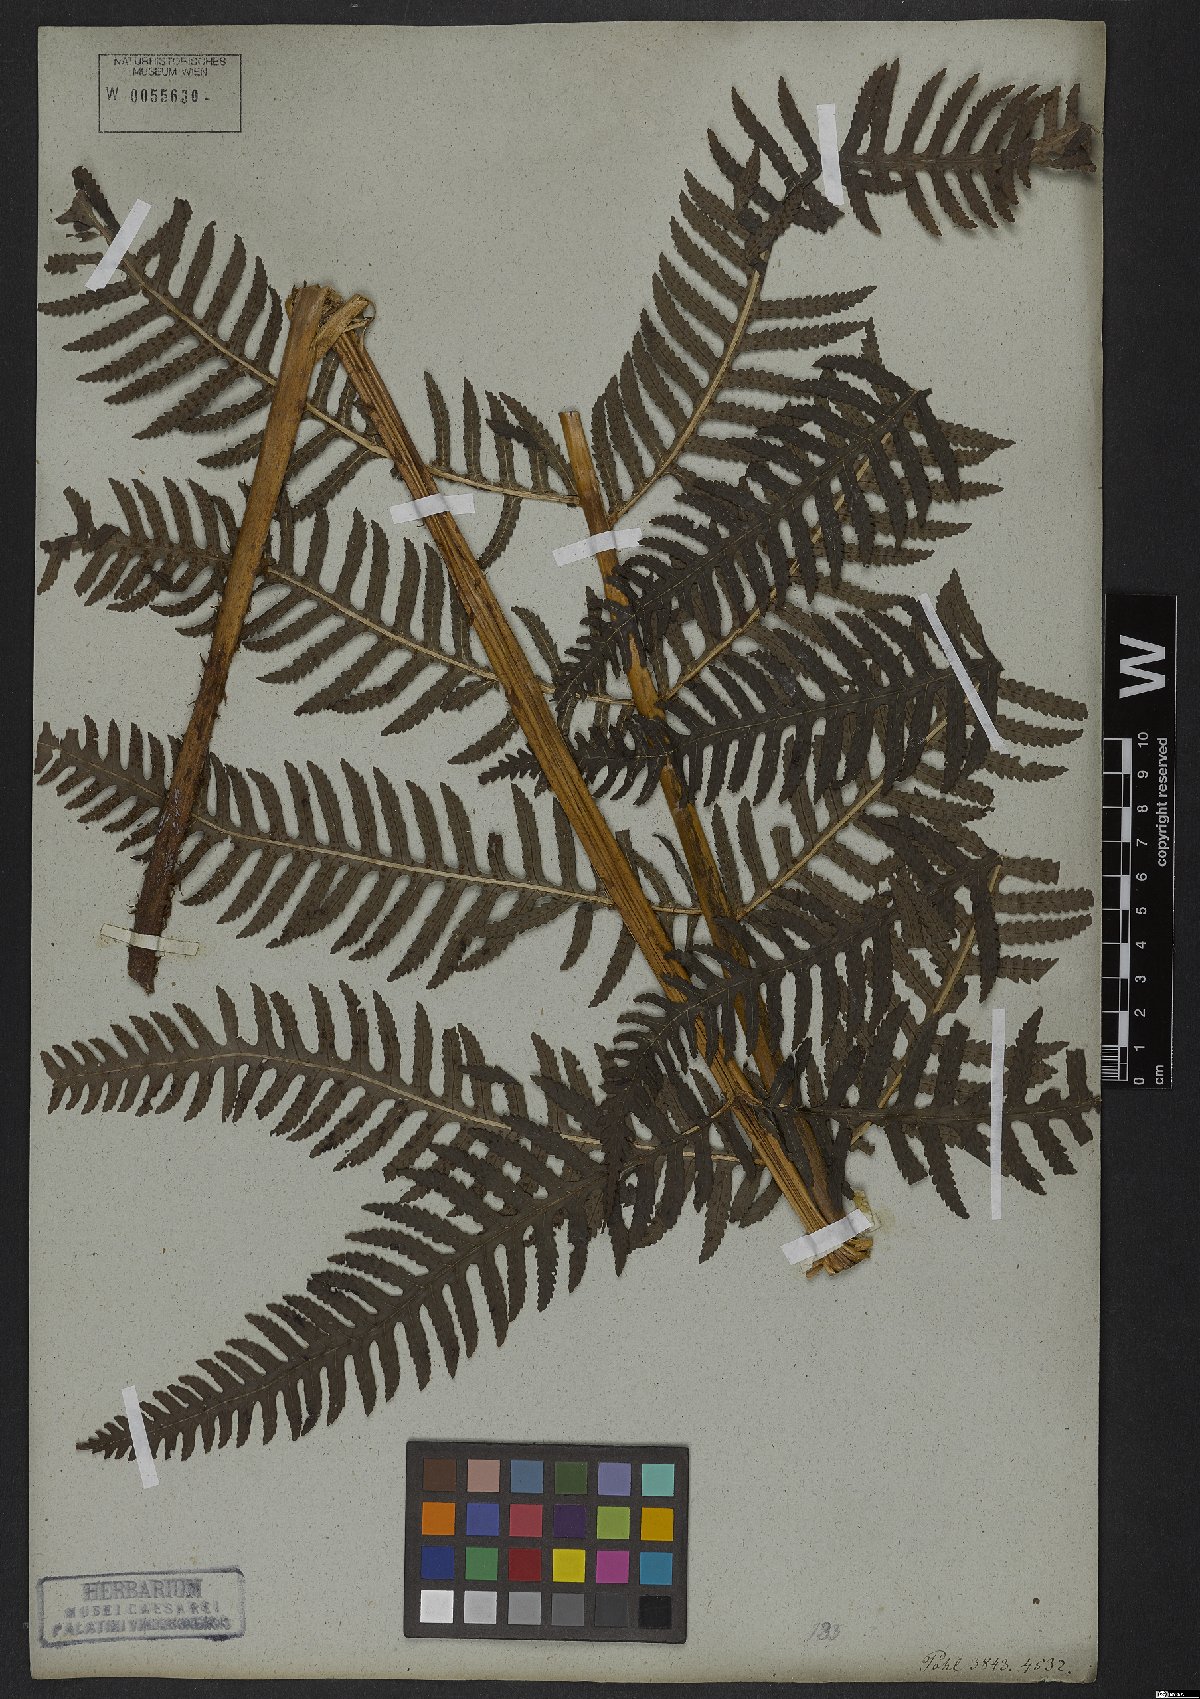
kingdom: Plantae
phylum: Tracheophyta
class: Polypodiopsida
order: Polypodiales
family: Dryopteridaceae
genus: Stigmatopteris
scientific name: Stigmatopteris caudata
